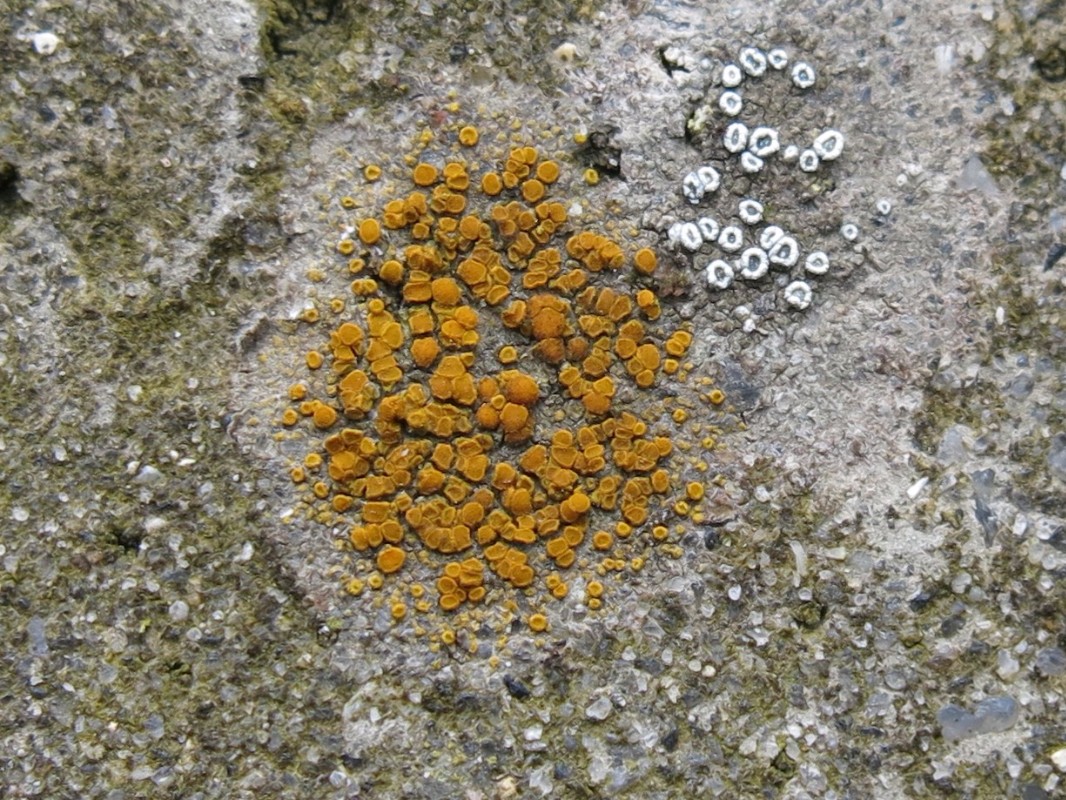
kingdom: Fungi
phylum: Ascomycota
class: Lecanoromycetes
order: Teloschistales
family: Teloschistaceae
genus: Athallia
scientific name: Athallia holocarpa
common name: liden orangelav
